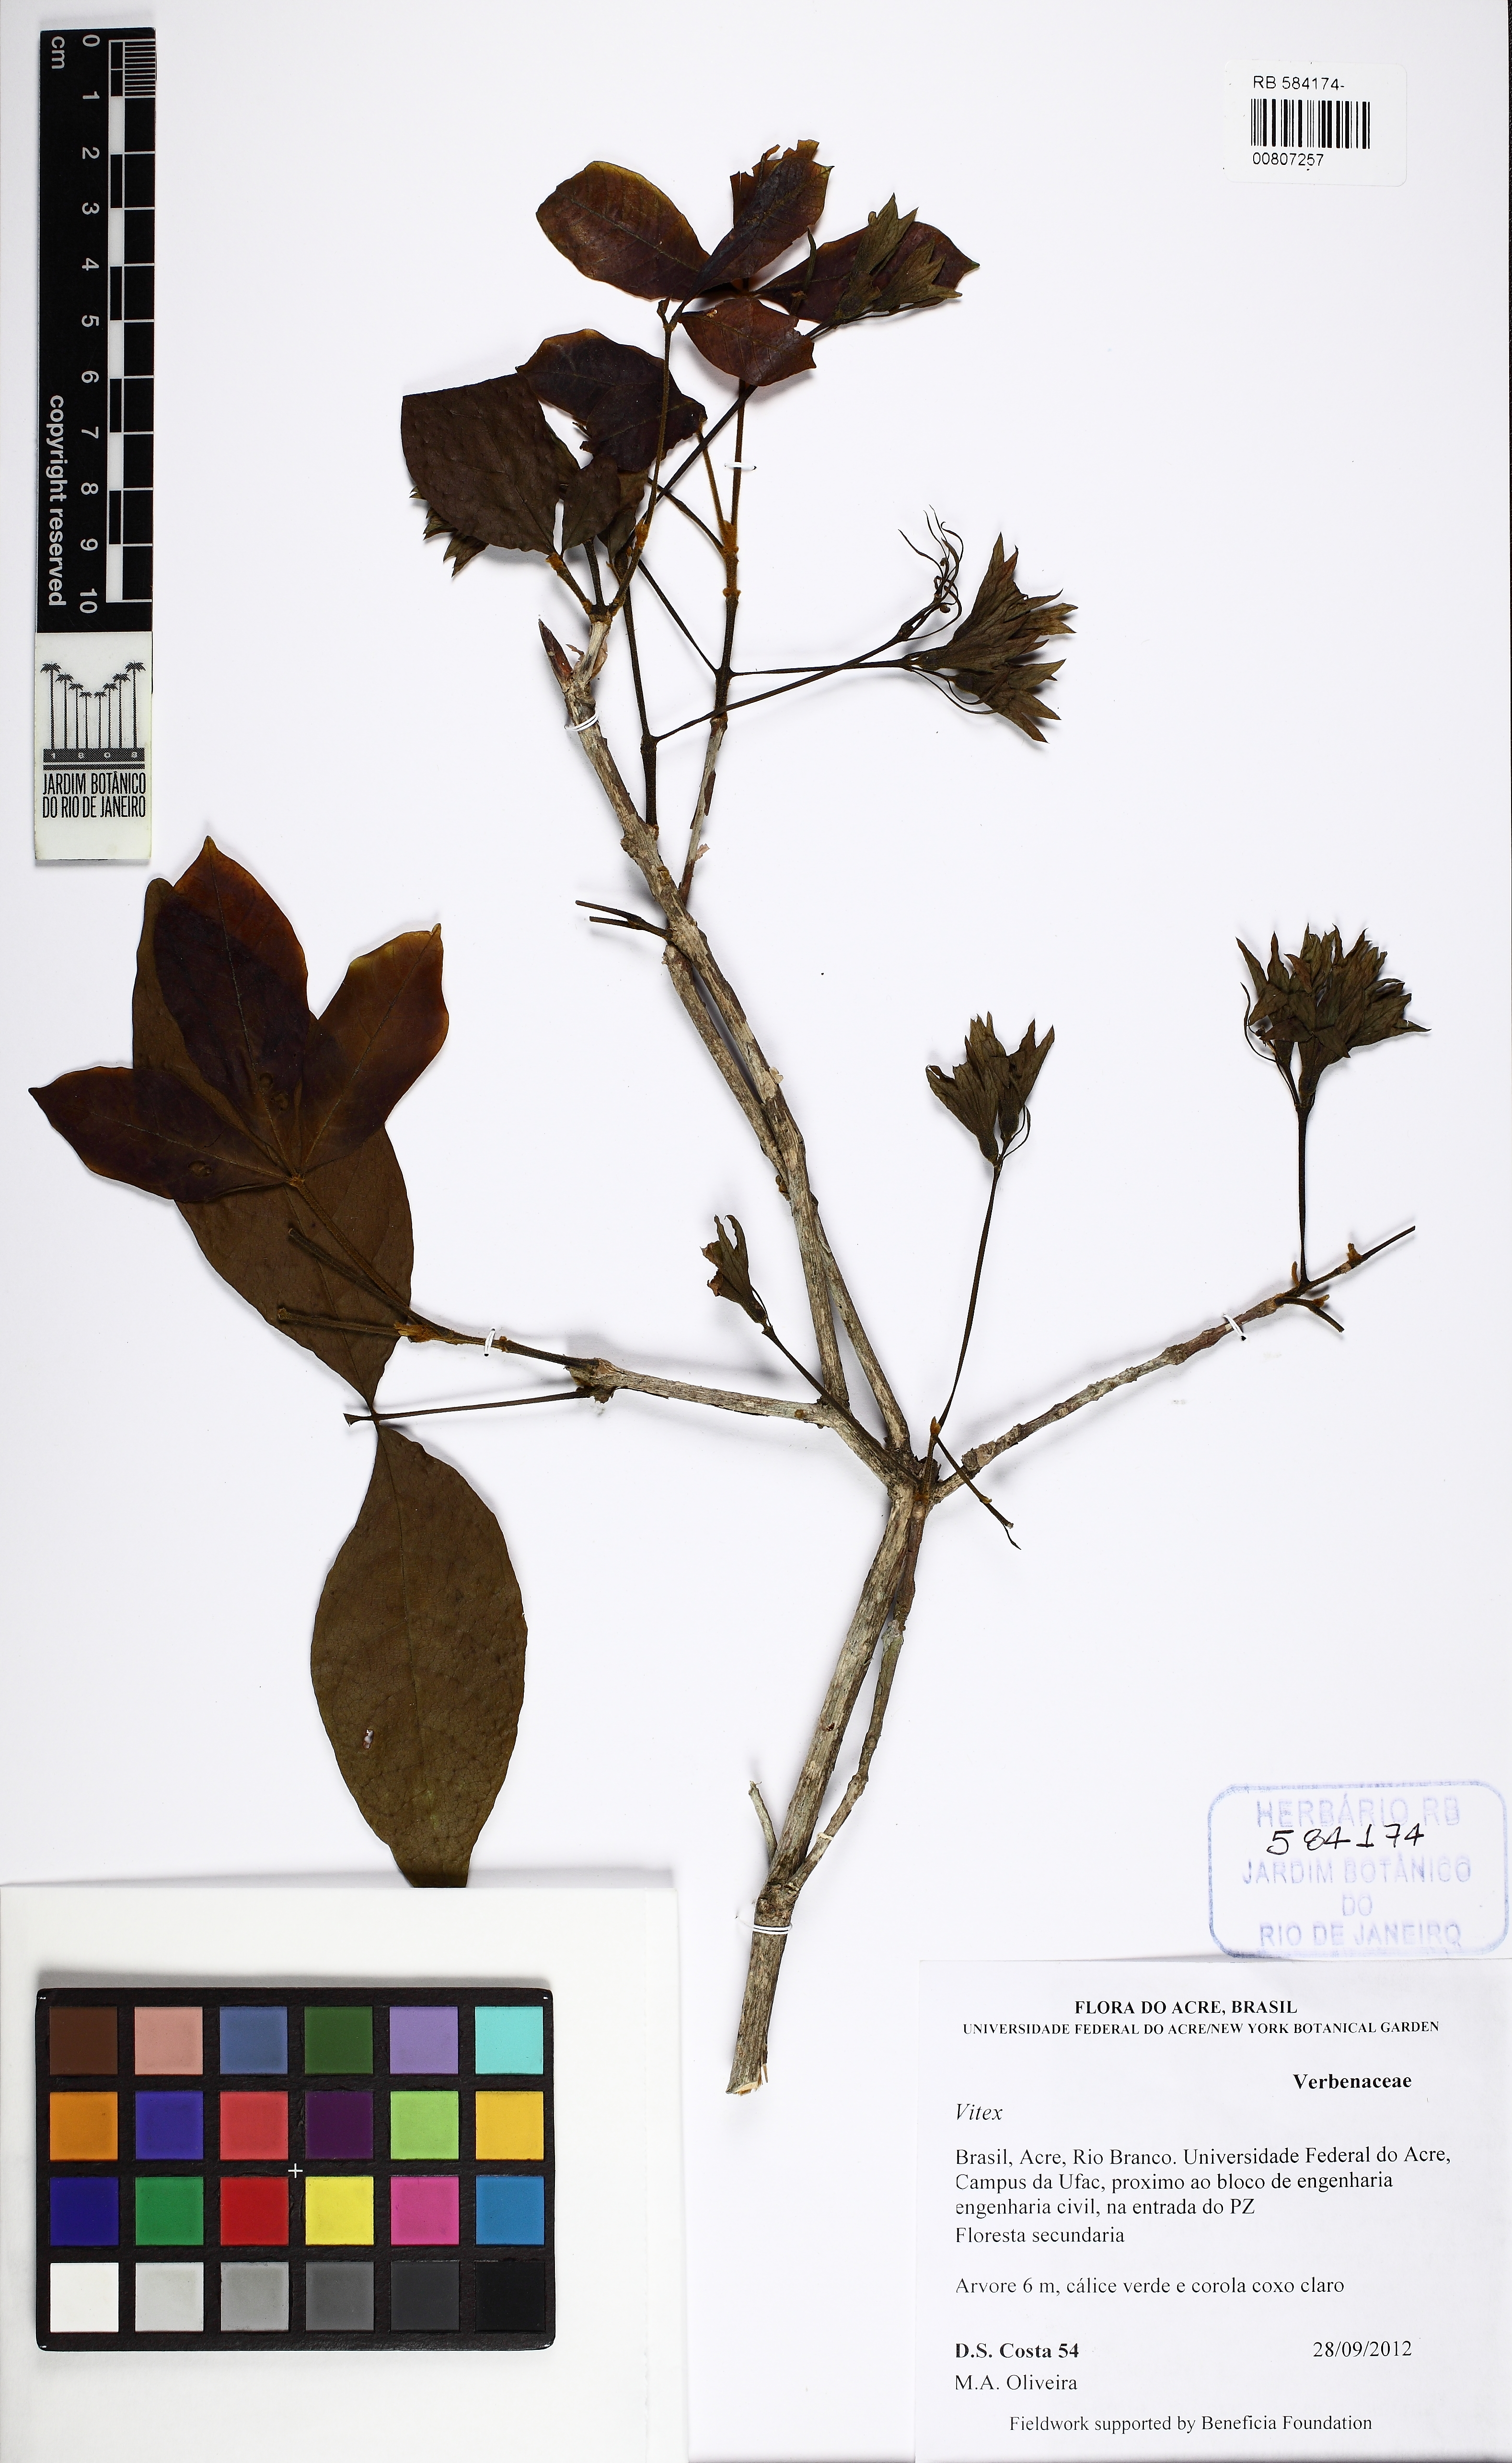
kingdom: Plantae
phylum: Tracheophyta
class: Magnoliopsida
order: Lamiales
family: Lamiaceae
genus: Vitex
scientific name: Vitex
